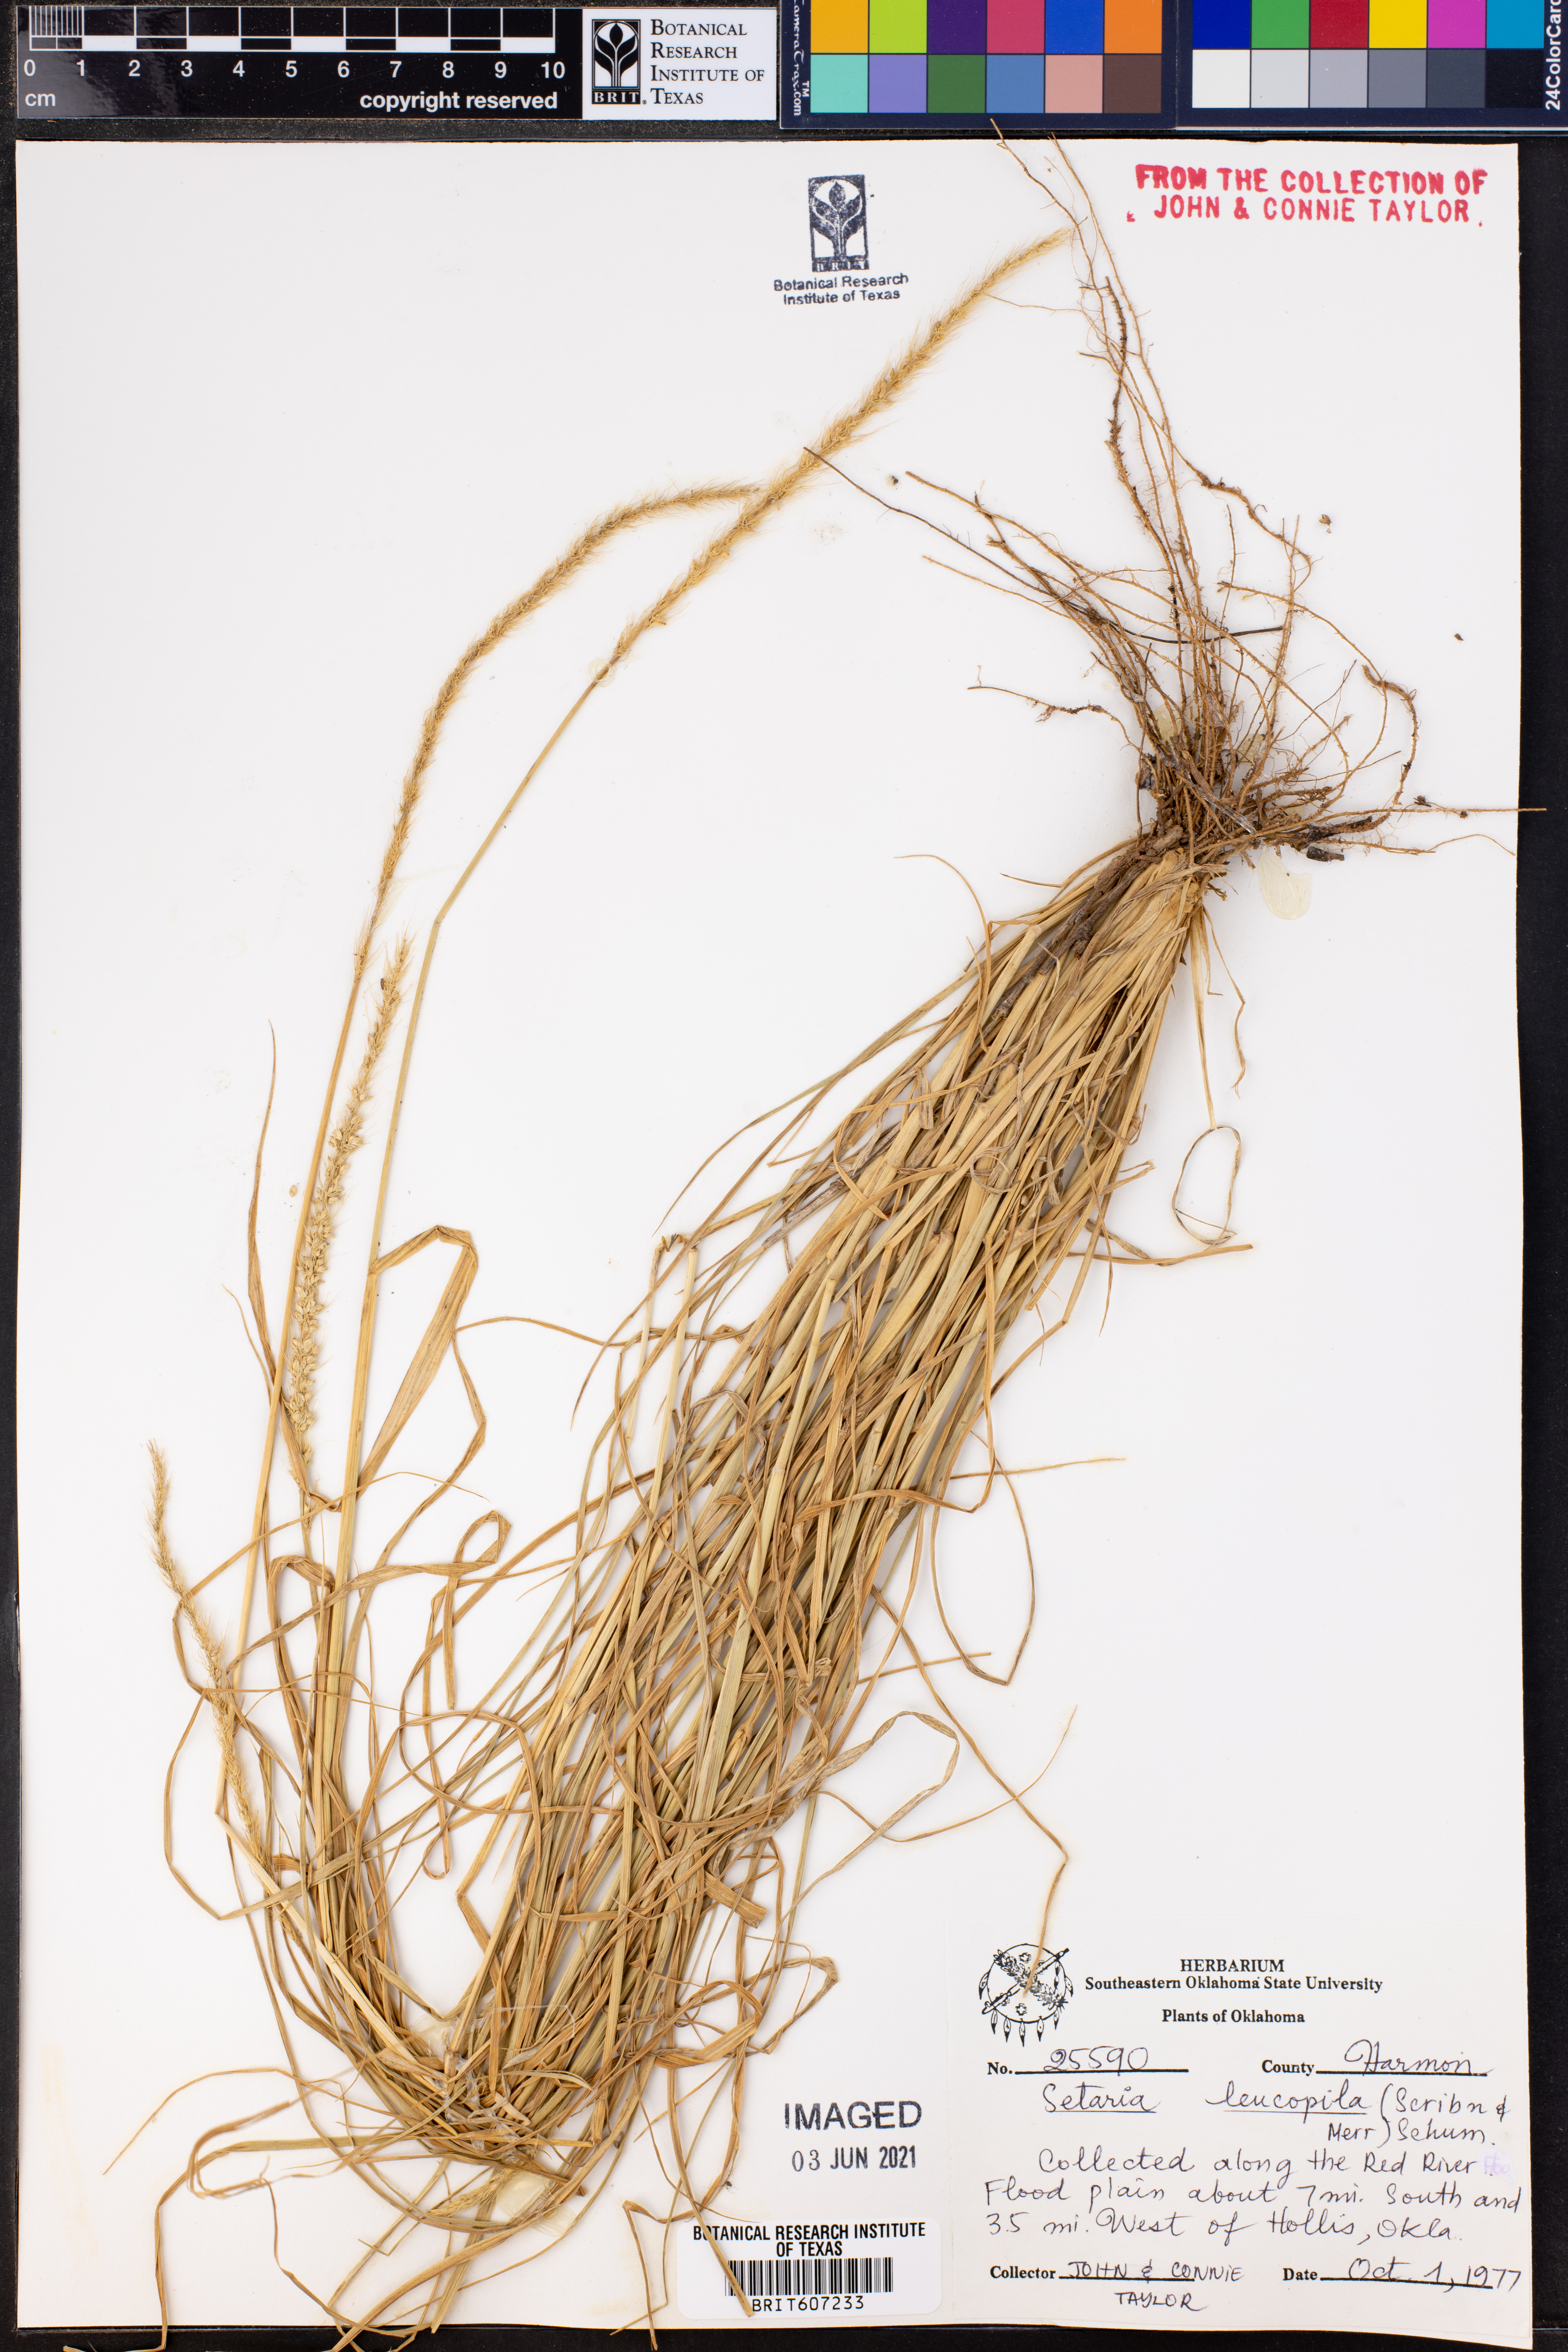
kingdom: Plantae
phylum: Tracheophyta
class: Liliopsida
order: Poales
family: Poaceae
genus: Setaria
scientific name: Setaria leucopila
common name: Plains bristle grass
